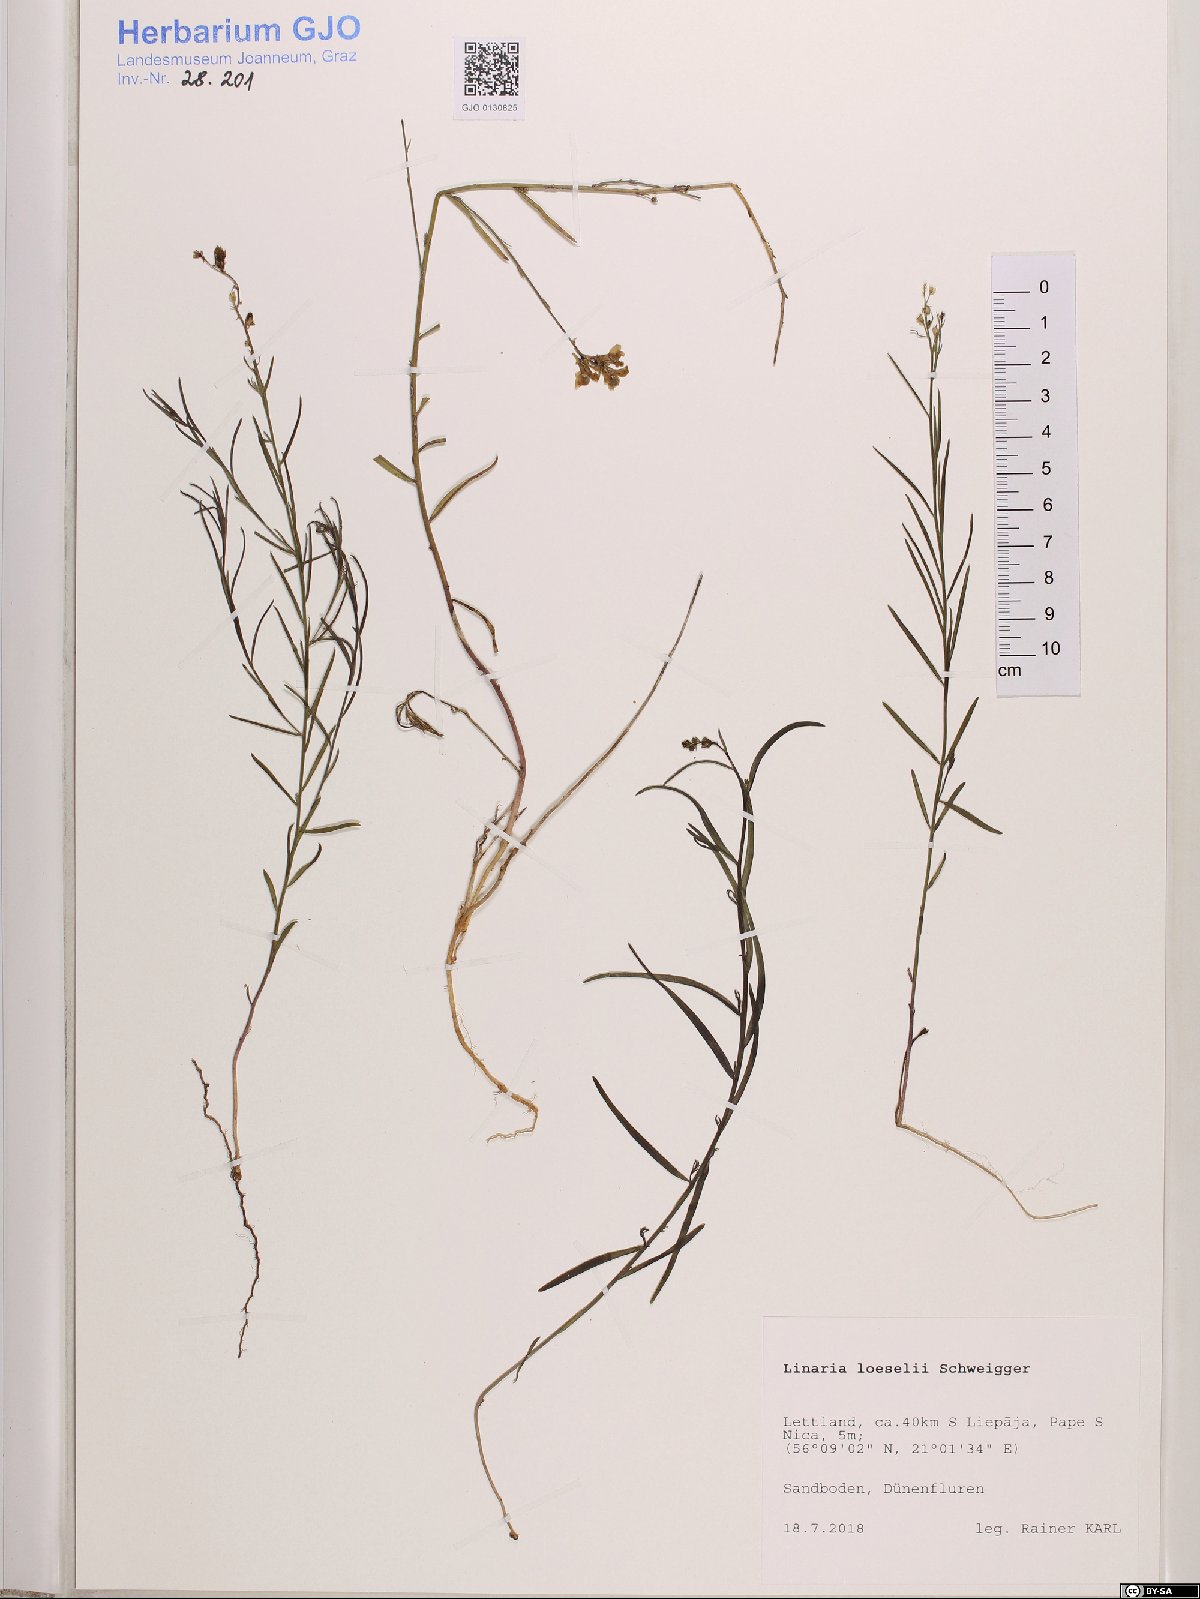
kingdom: Plantae
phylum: Tracheophyta
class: Magnoliopsida
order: Lamiales
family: Plantaginaceae
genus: Linaria
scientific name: Linaria loeselii
